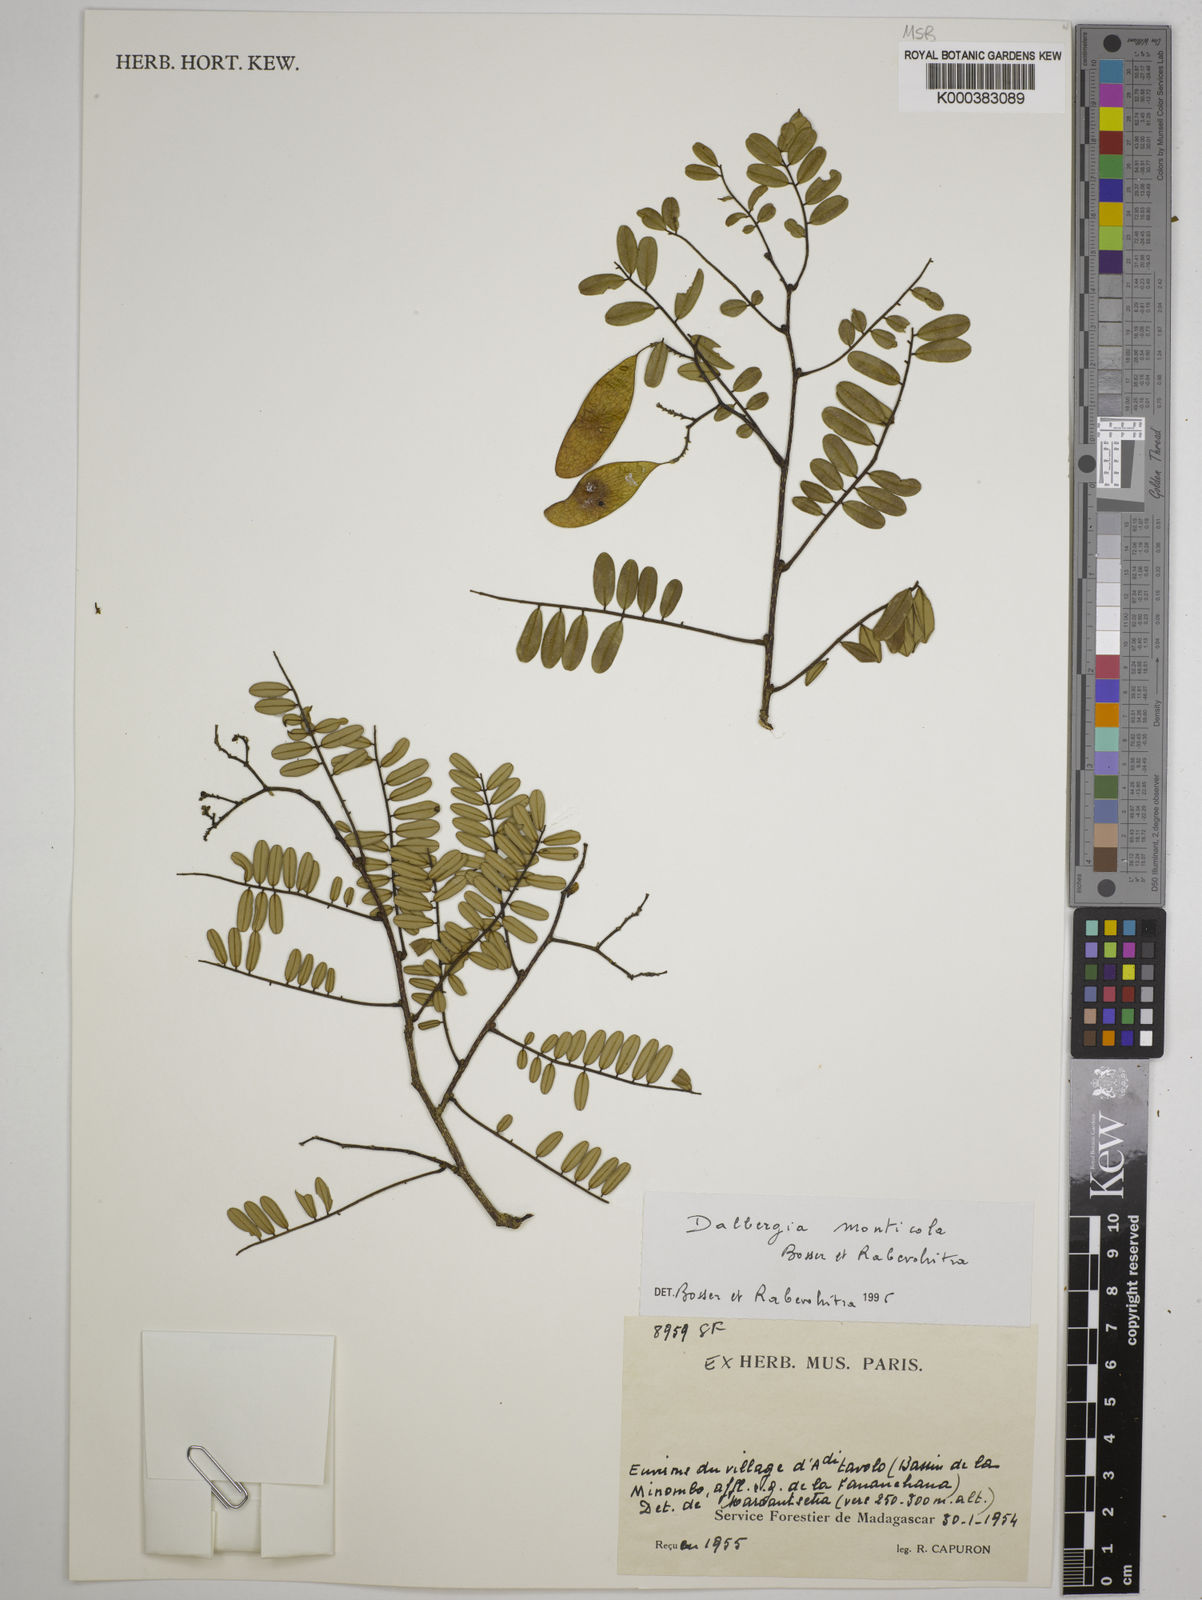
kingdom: Plantae
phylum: Tracheophyta
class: Magnoliopsida
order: Fabales
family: Fabaceae
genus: Dalbergia
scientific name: Dalbergia monticola
